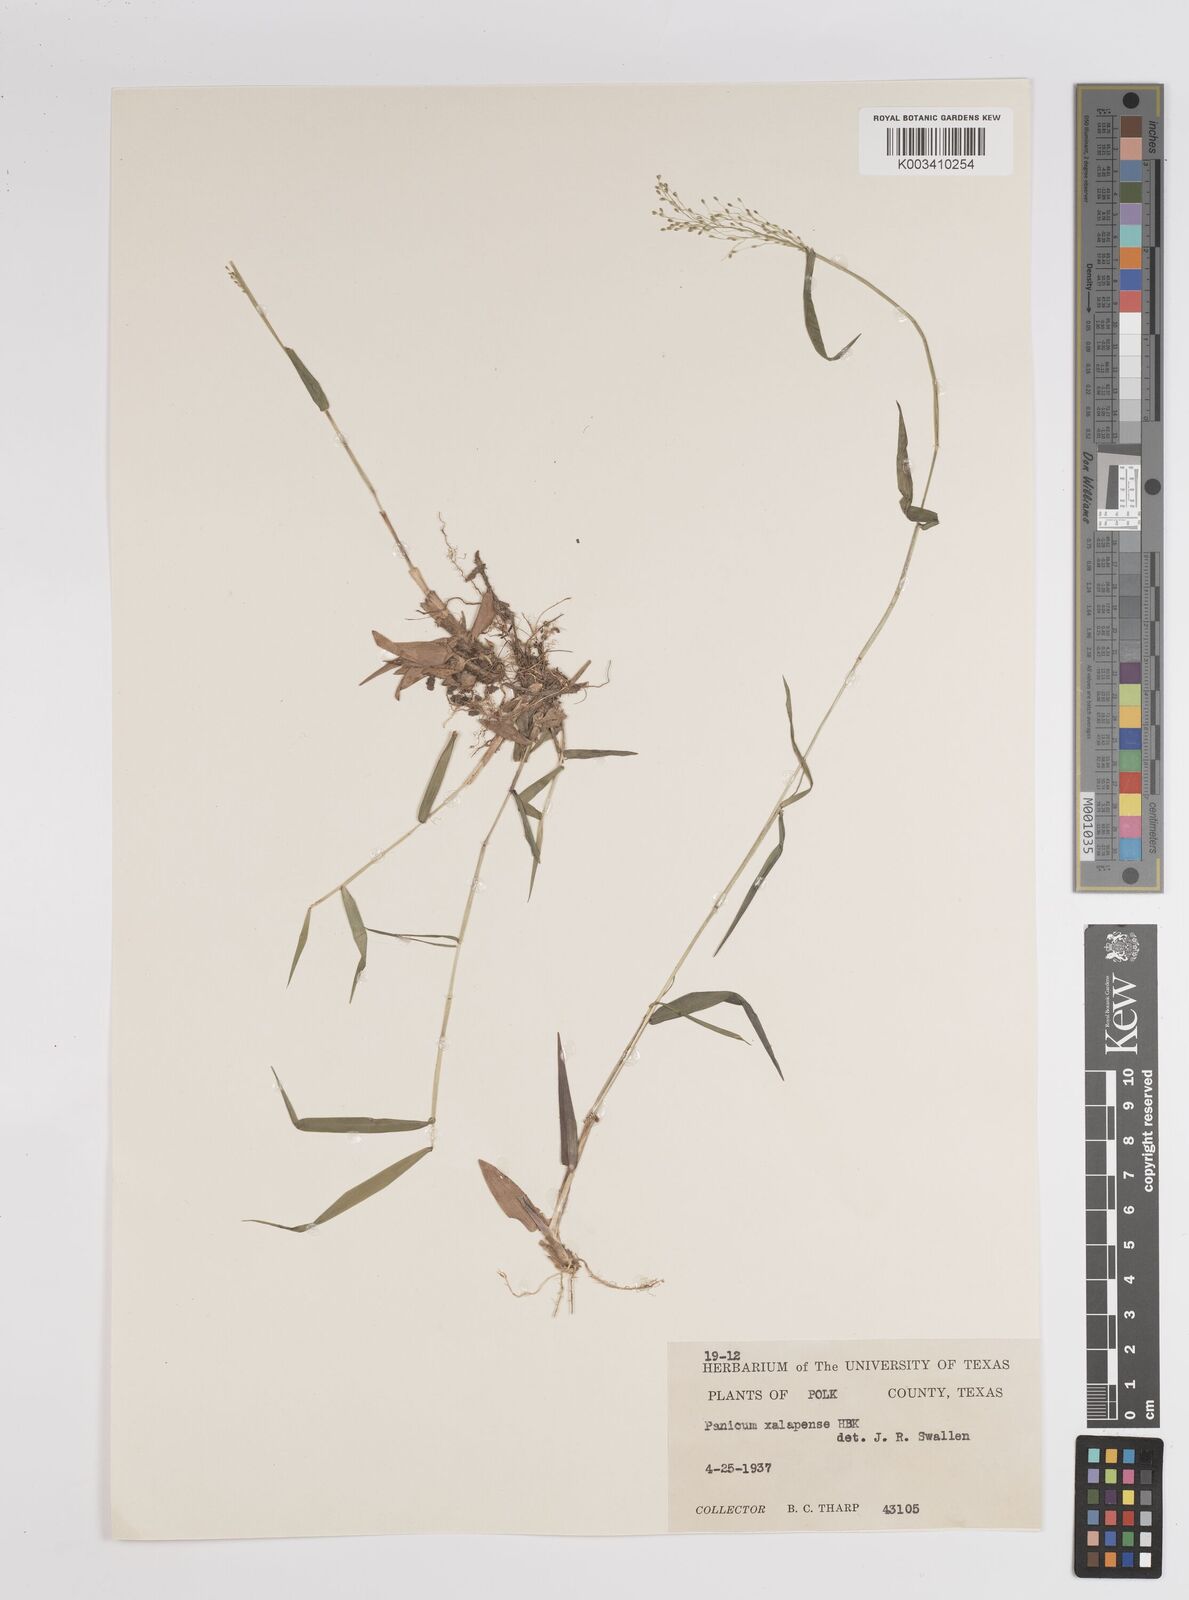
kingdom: Plantae
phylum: Tracheophyta
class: Liliopsida
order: Poales
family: Poaceae
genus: Dichanthelium
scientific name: Dichanthelium laxiflorum
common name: Soft-tuft panic grass
